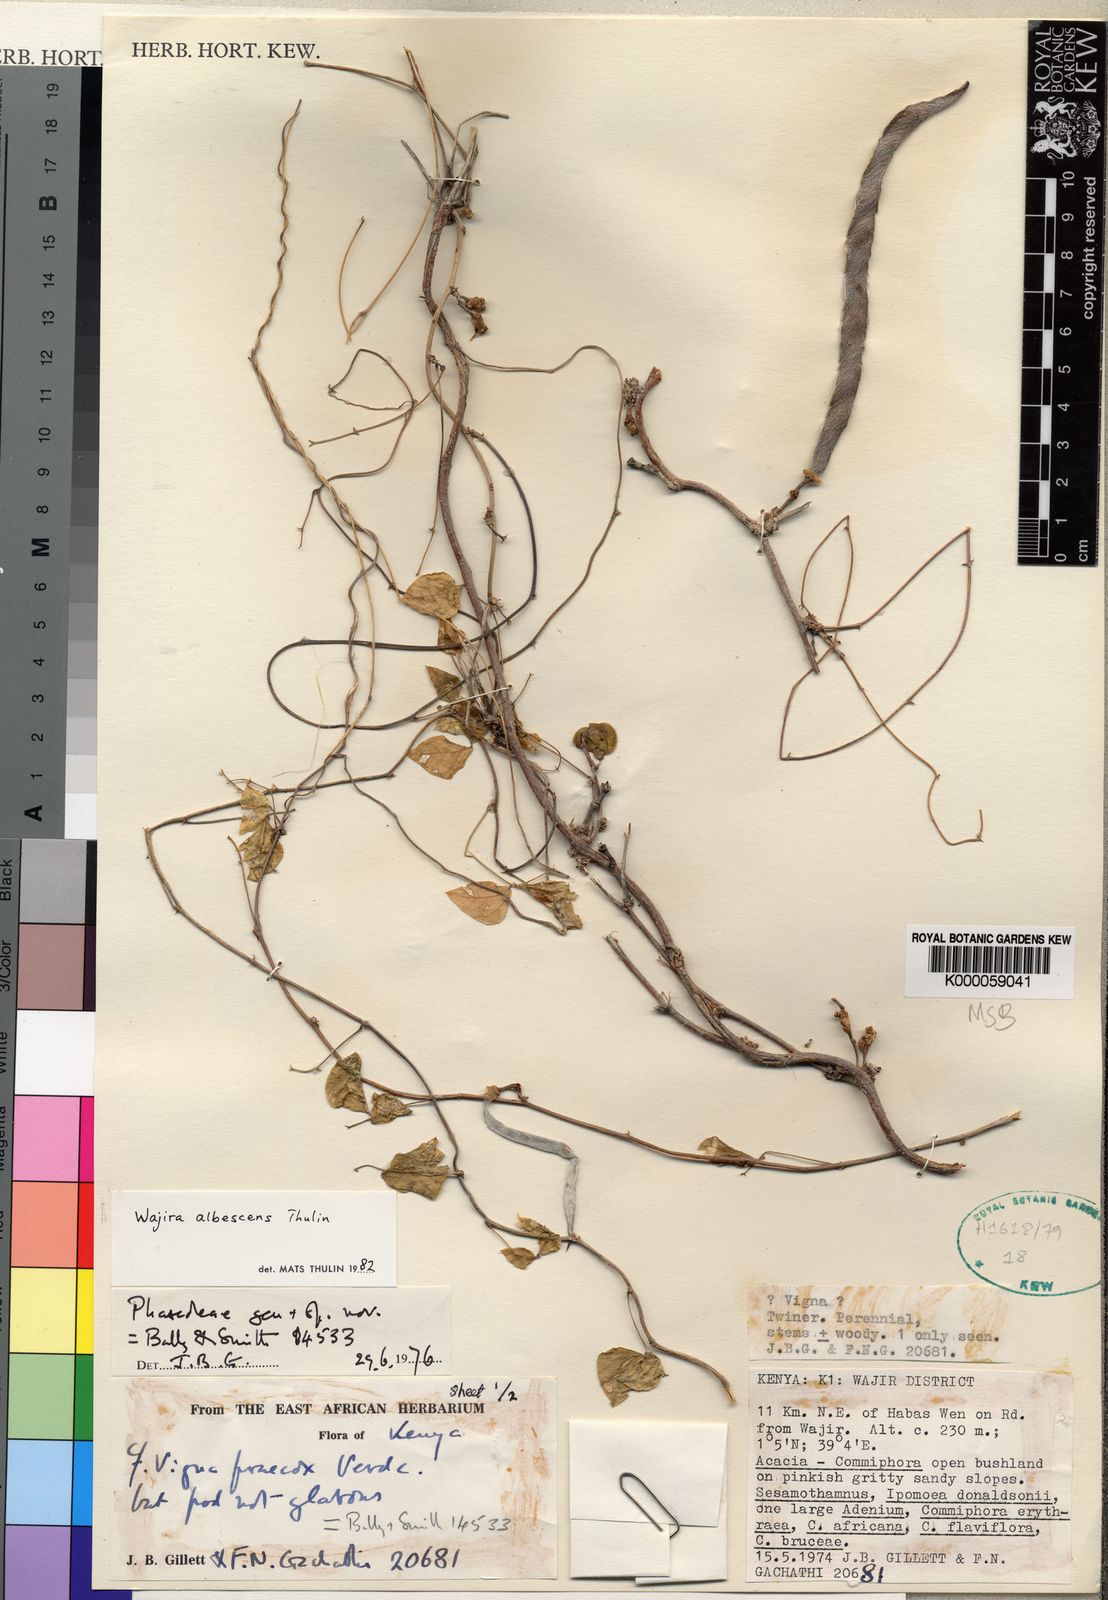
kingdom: Plantae
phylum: Tracheophyta
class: Magnoliopsida
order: Fabales
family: Fabaceae
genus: Wajira
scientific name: Wajira albescens
